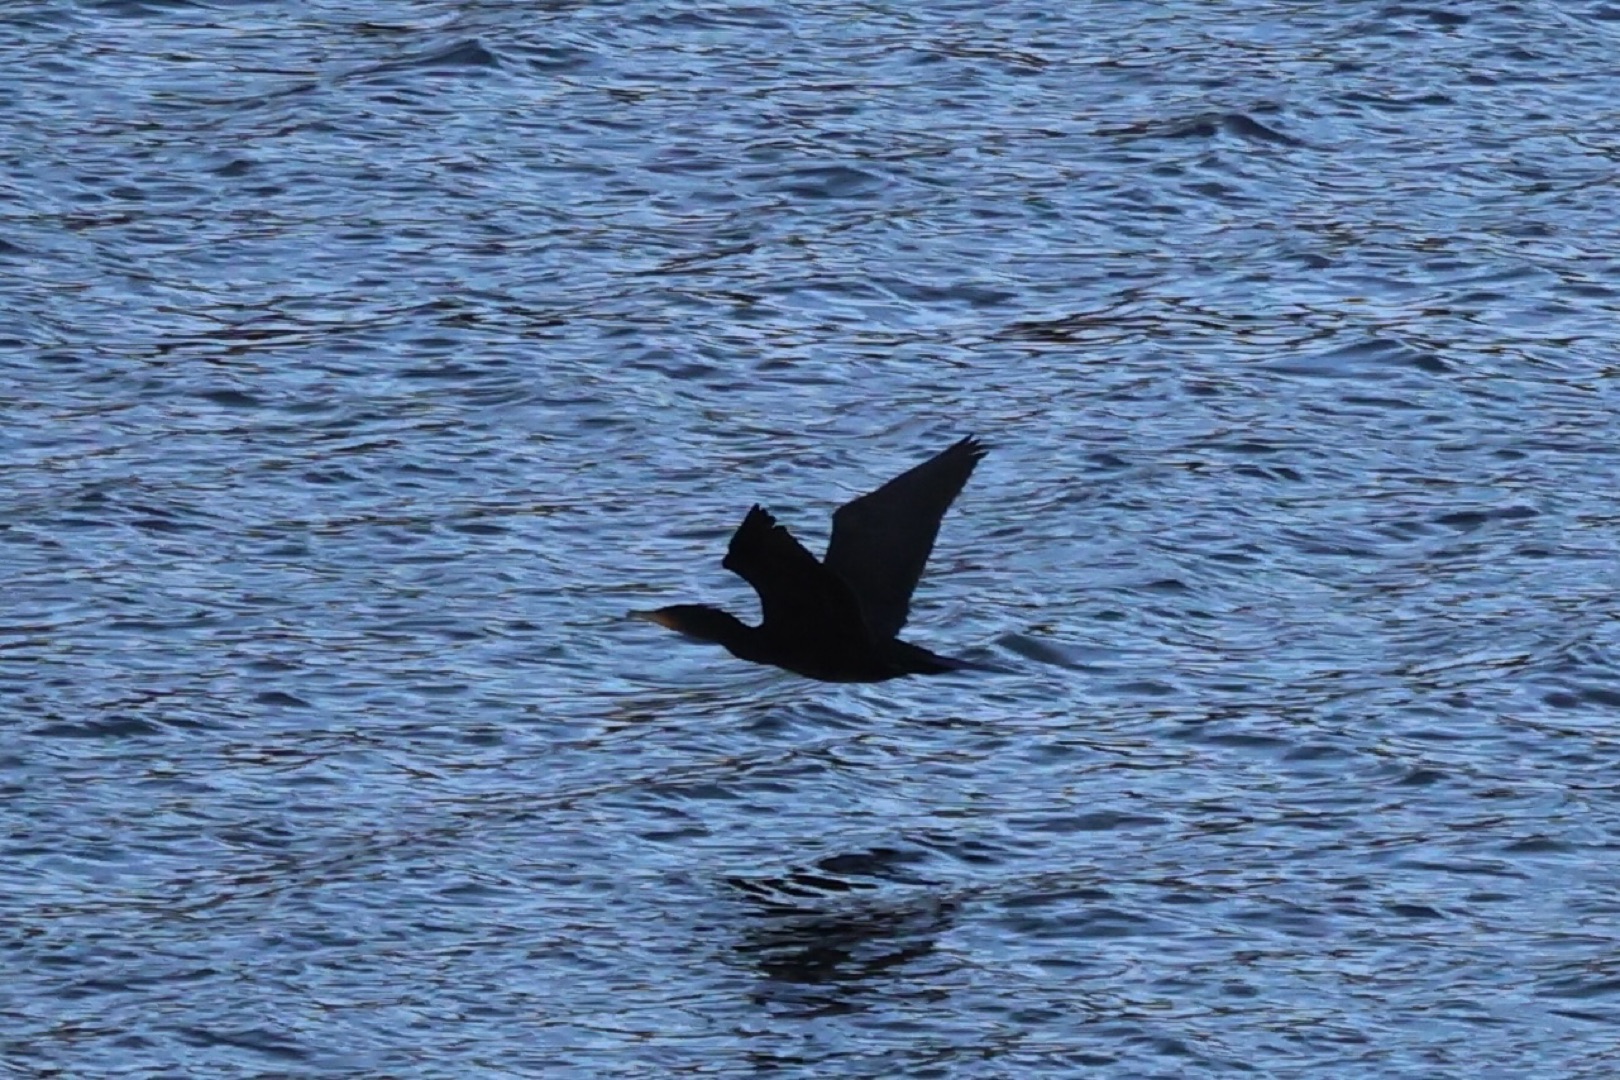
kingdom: Animalia
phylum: Chordata
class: Aves
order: Suliformes
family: Phalacrocoracidae
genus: Phalacrocorax
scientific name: Phalacrocorax carbo
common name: Skarv
